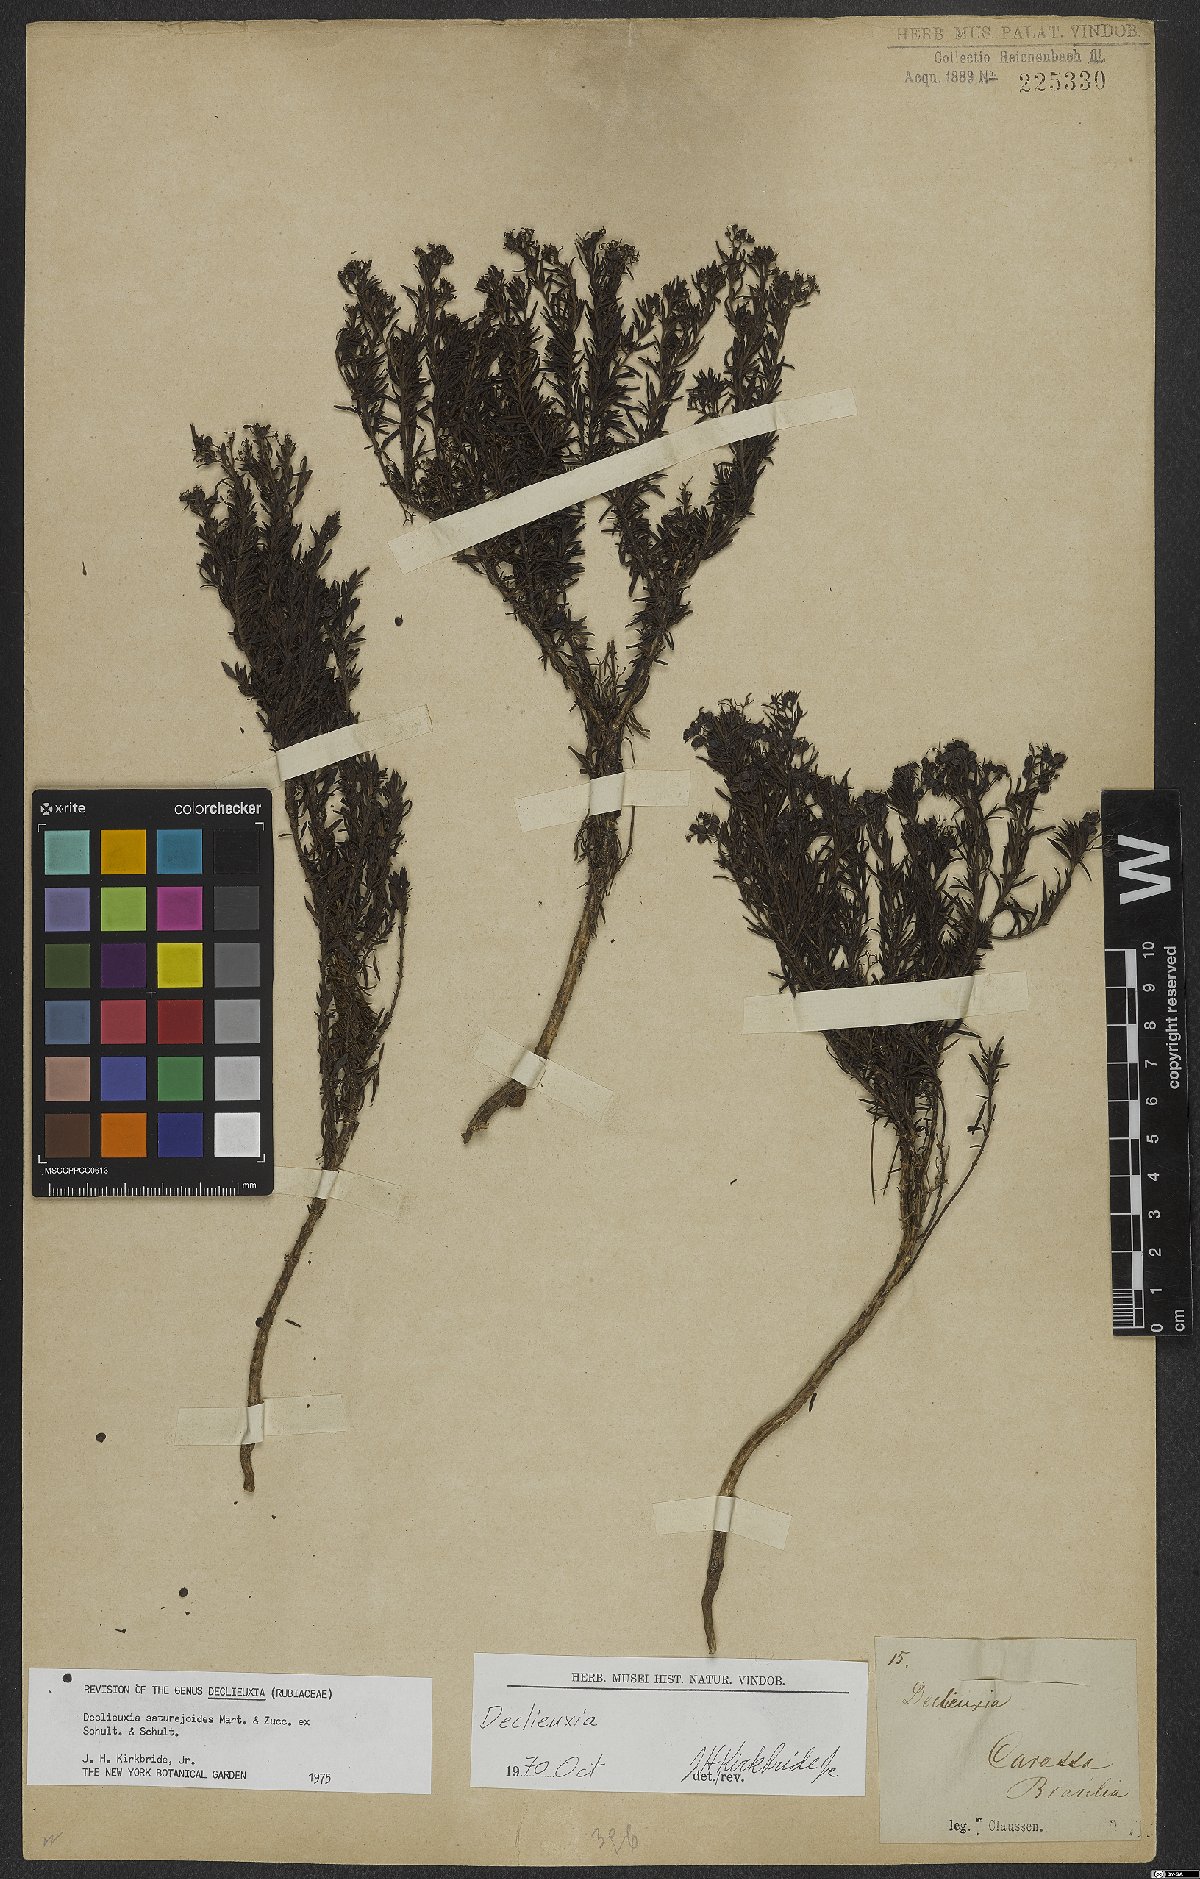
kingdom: Plantae
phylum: Tracheophyta
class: Magnoliopsida
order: Gentianales
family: Rubiaceae
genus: Declieuxia
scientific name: Declieuxia saturejoides
